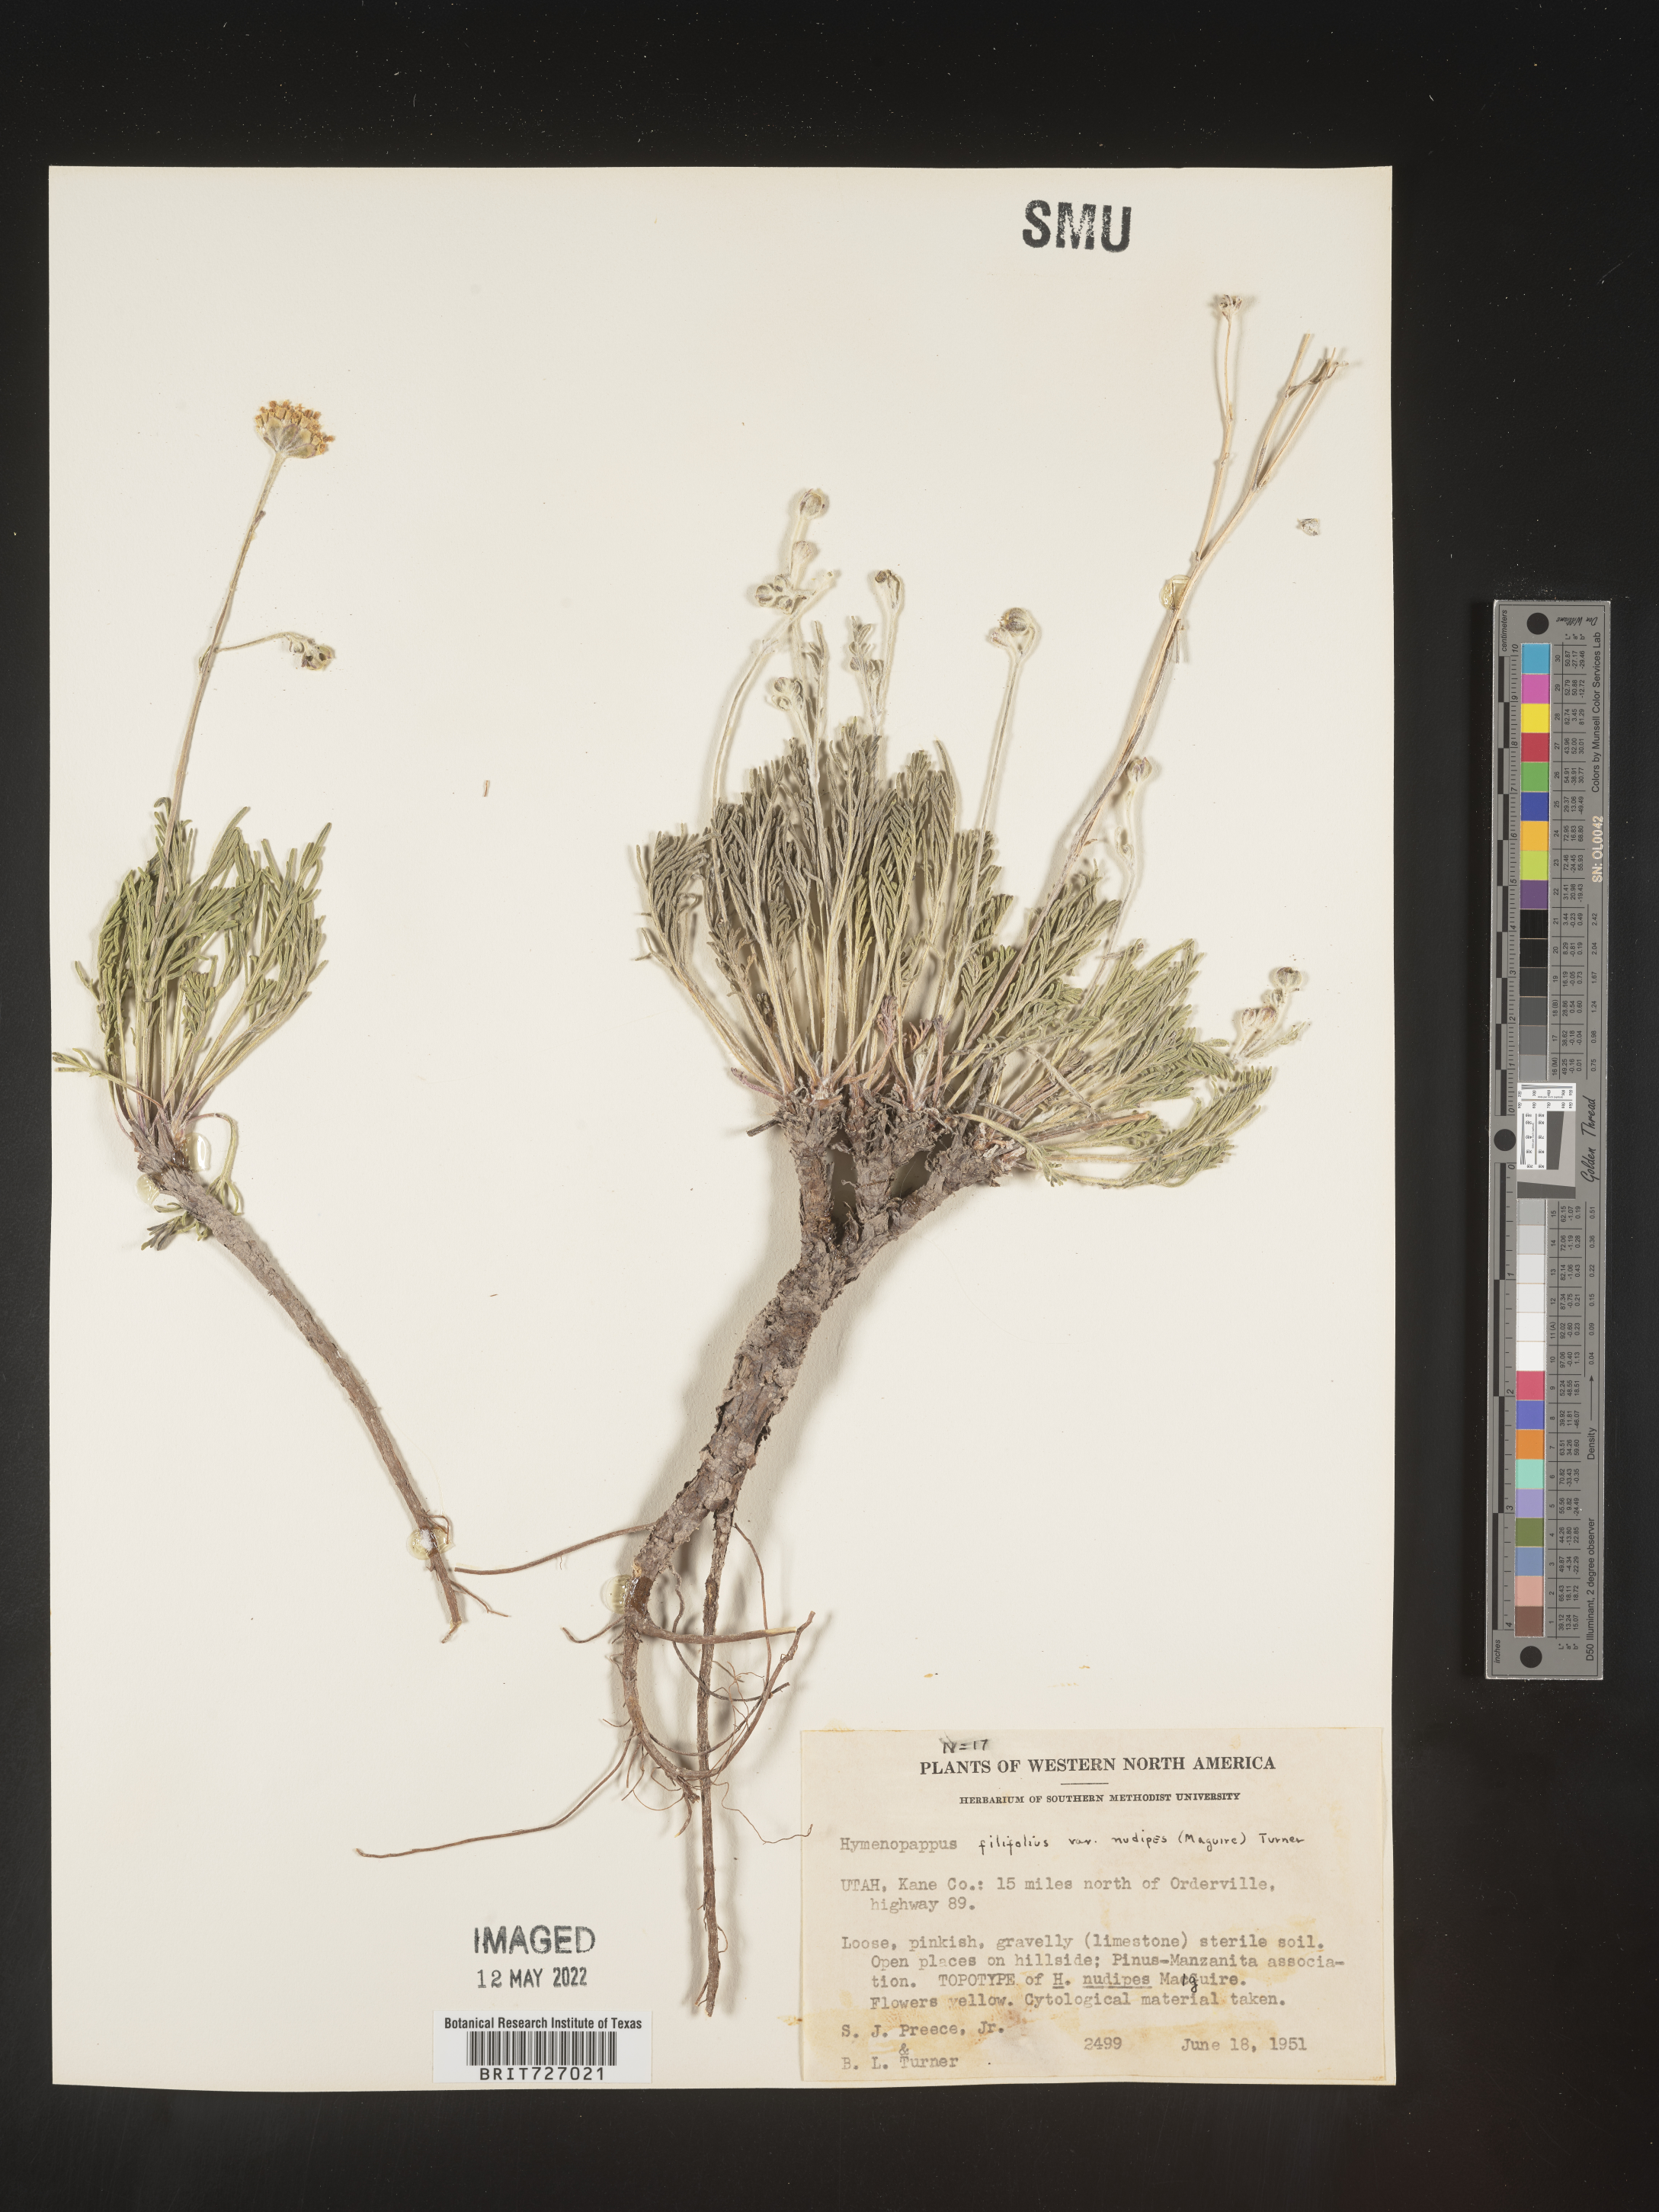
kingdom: Plantae
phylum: Tracheophyta
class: Magnoliopsida
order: Asterales
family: Asteraceae
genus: Hymenopappus
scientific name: Hymenopappus filifolius
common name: Columbia cutleaf
